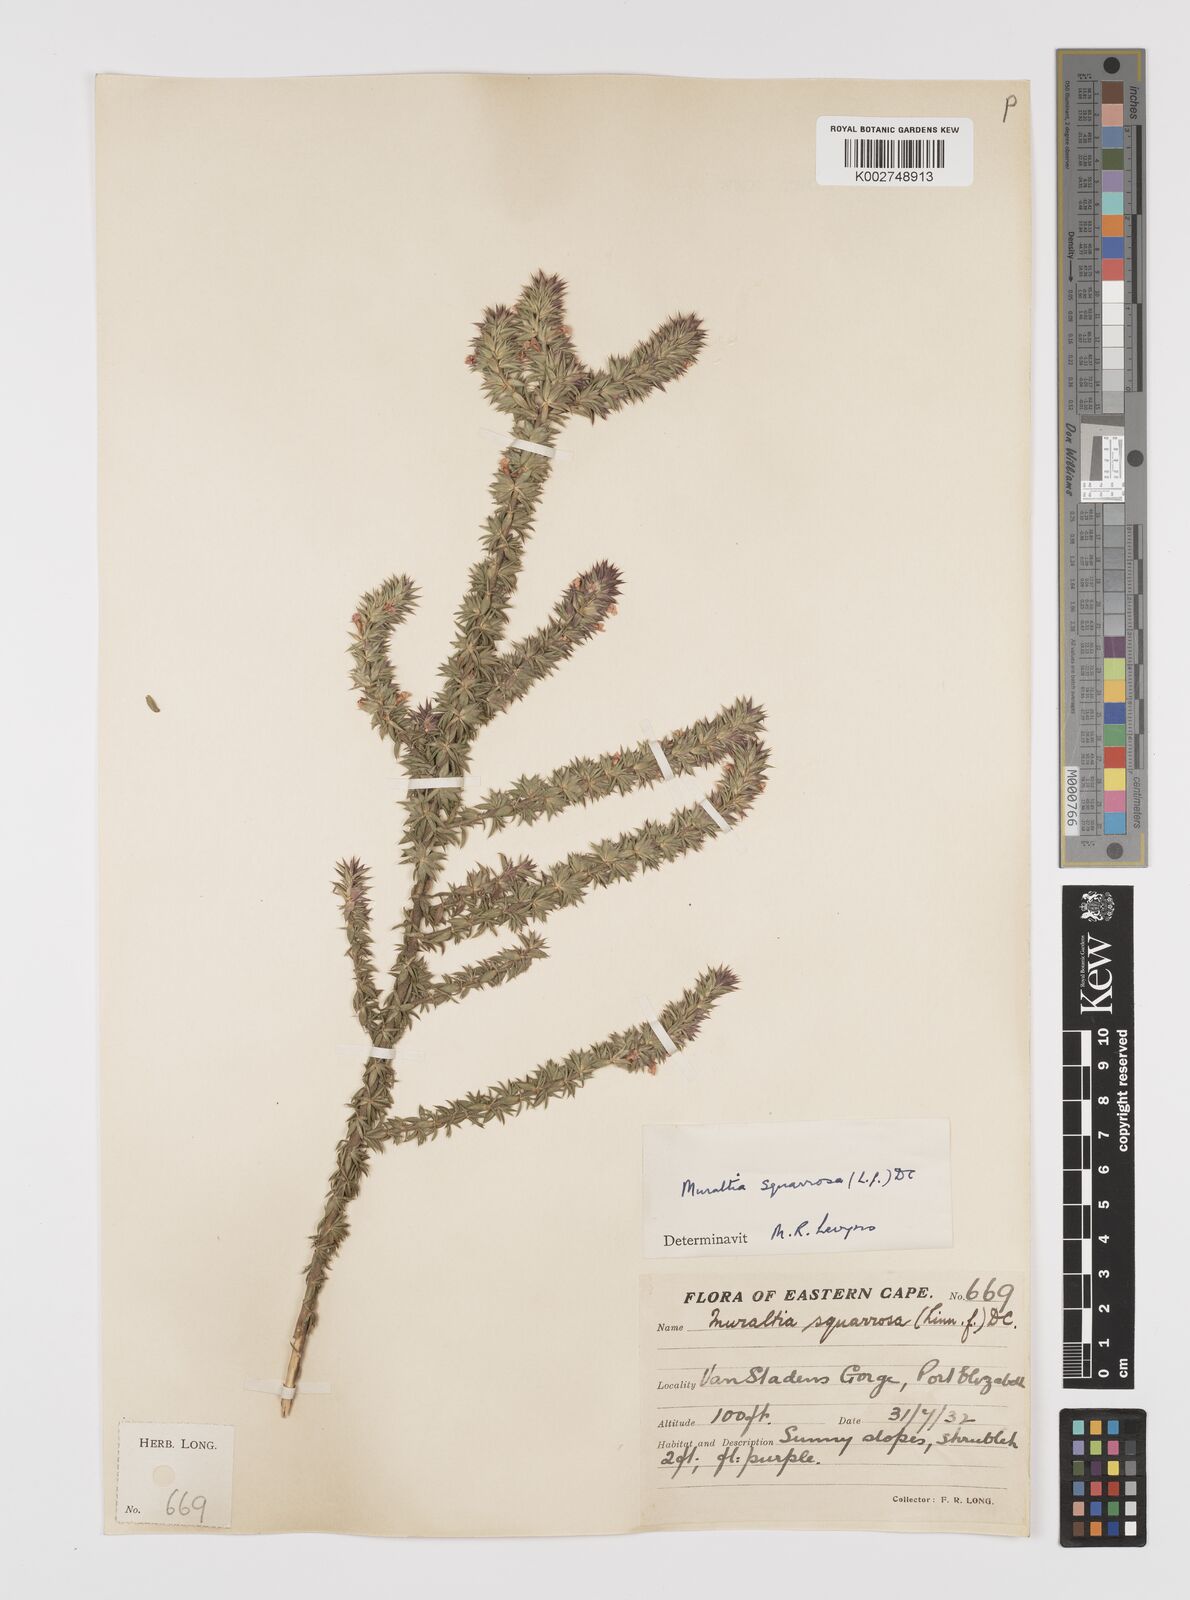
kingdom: Plantae
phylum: Tracheophyta
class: Magnoliopsida
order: Fabales
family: Polygalaceae
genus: Muraltia
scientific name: Muraltia squarrosa
